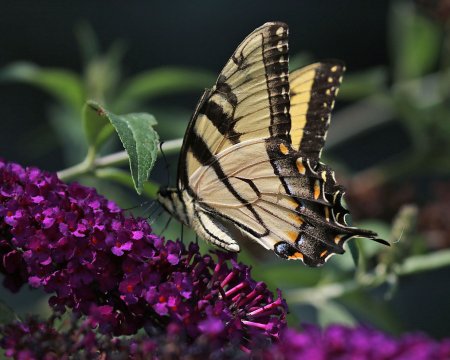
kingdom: Animalia
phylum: Arthropoda
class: Insecta
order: Lepidoptera
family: Papilionidae
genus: Pterourus
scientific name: Pterourus glaucus
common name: Eastern Tiger Swallowtail
